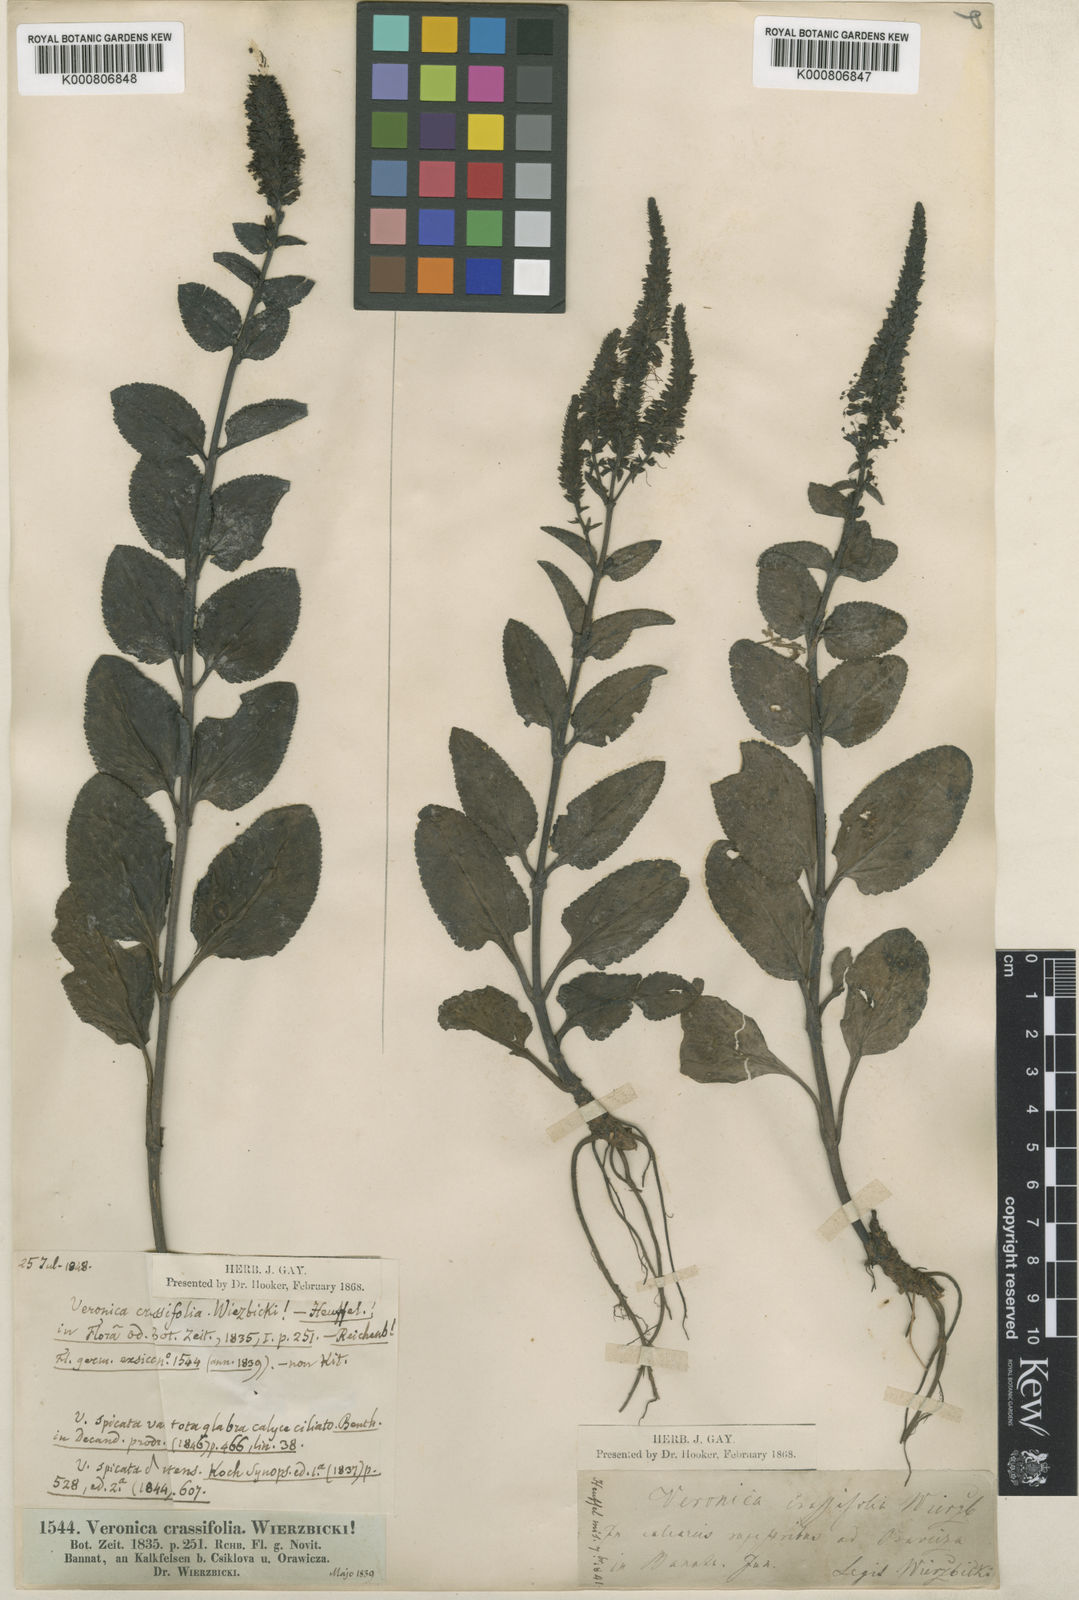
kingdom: Plantae
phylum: Tracheophyta
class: Magnoliopsida
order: Lamiales
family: Plantaginaceae
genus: Veronica
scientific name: Veronica barrelieri
